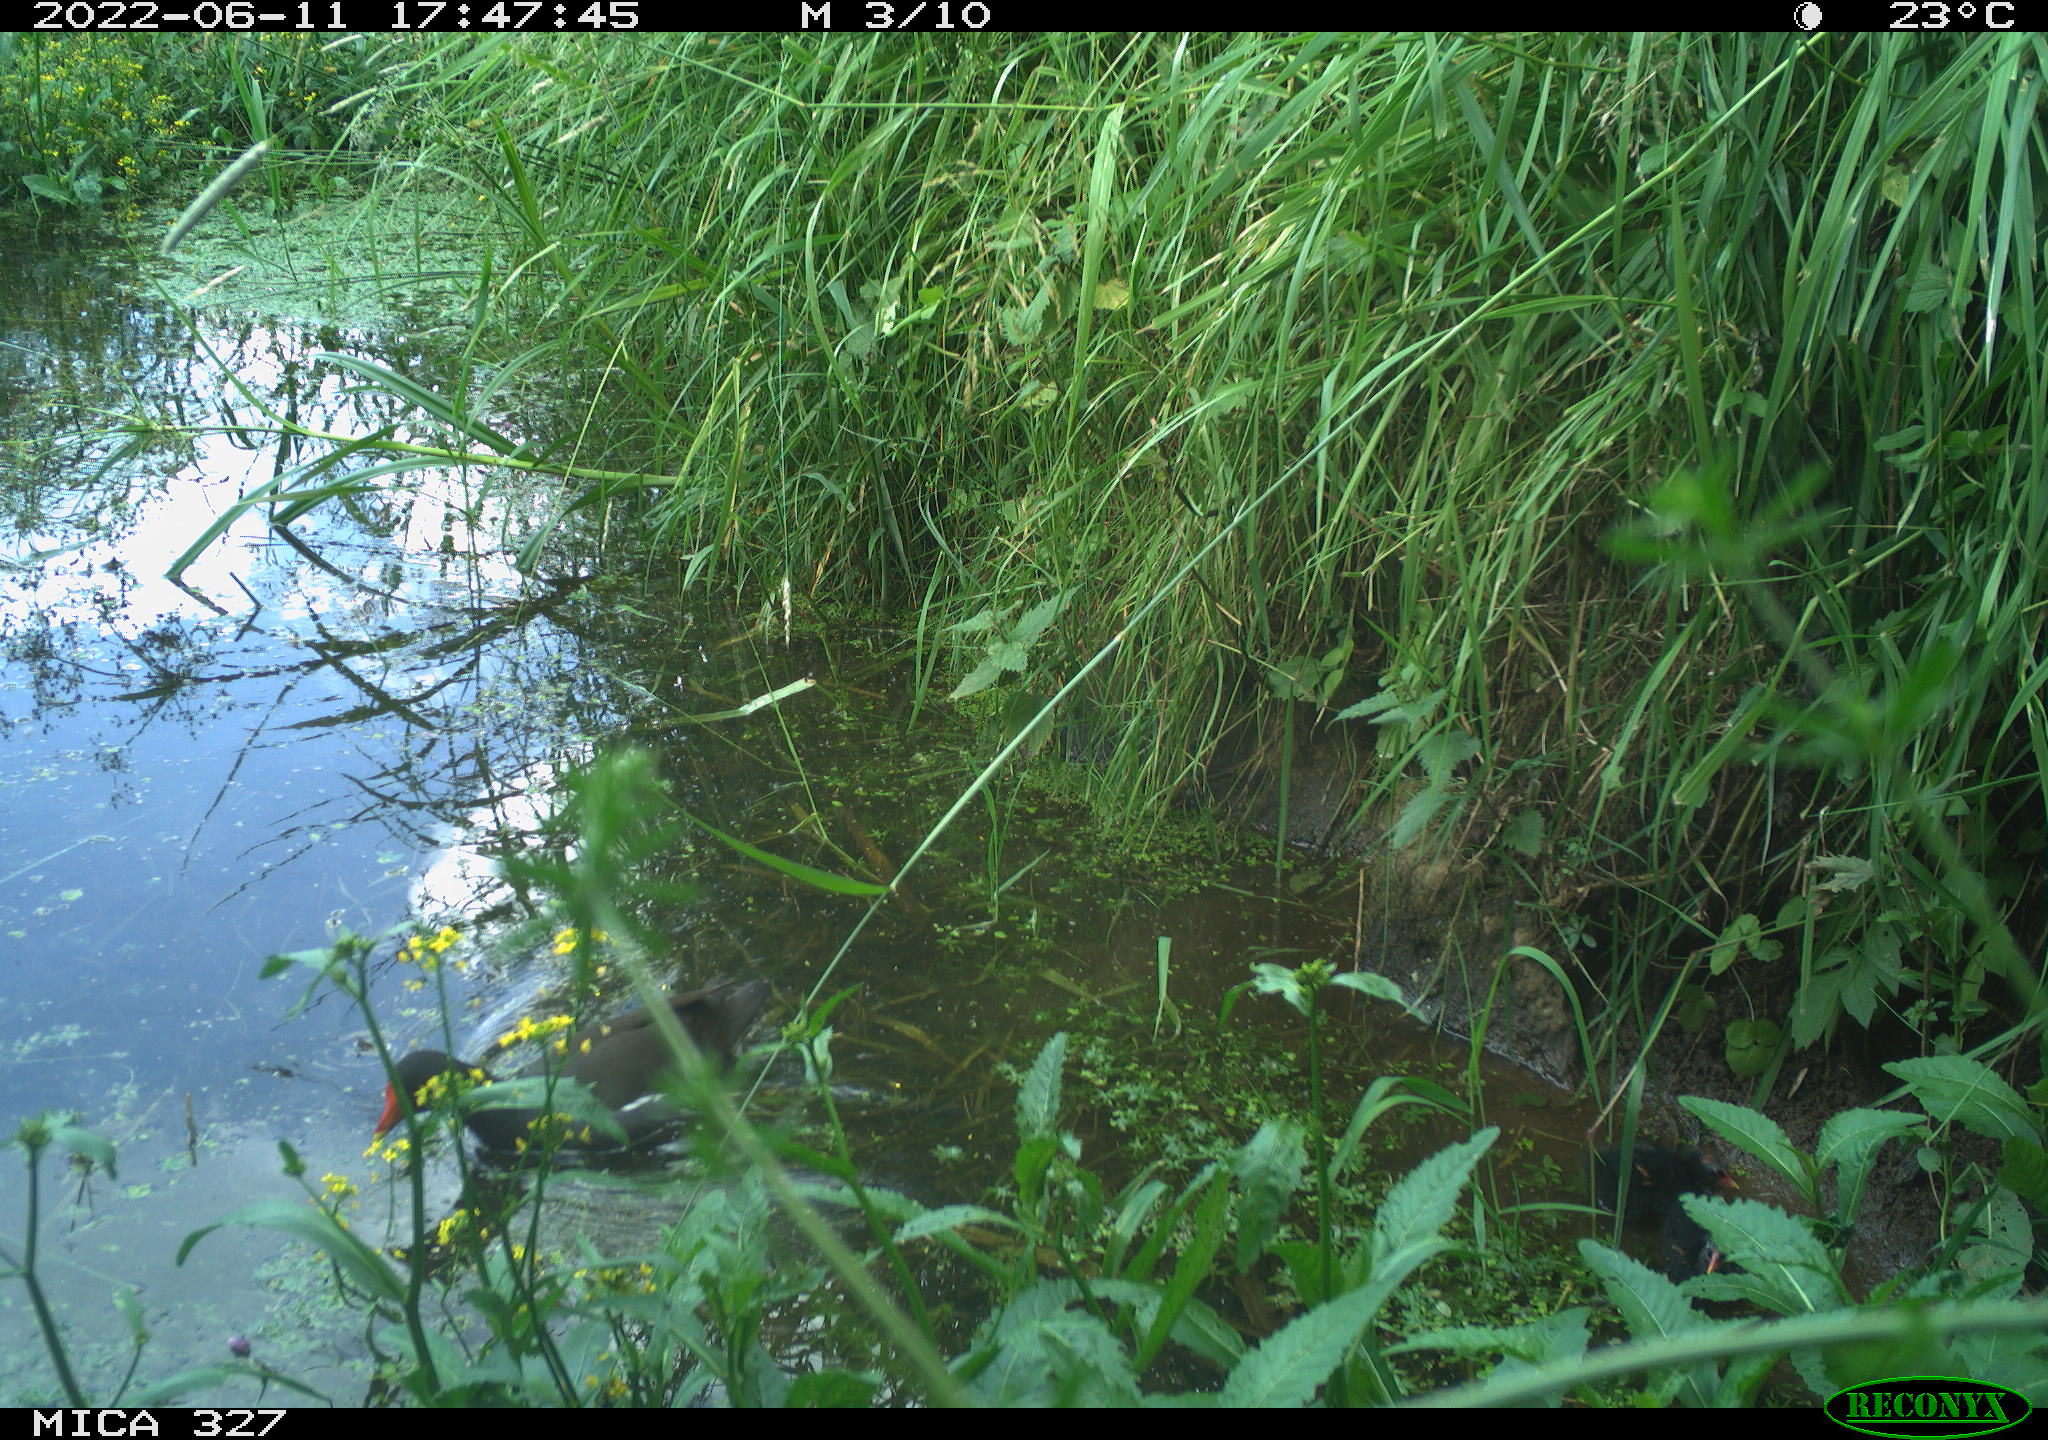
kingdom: Animalia
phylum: Chordata
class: Aves
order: Gruiformes
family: Rallidae
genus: Gallinula
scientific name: Gallinula chloropus
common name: Common moorhen
